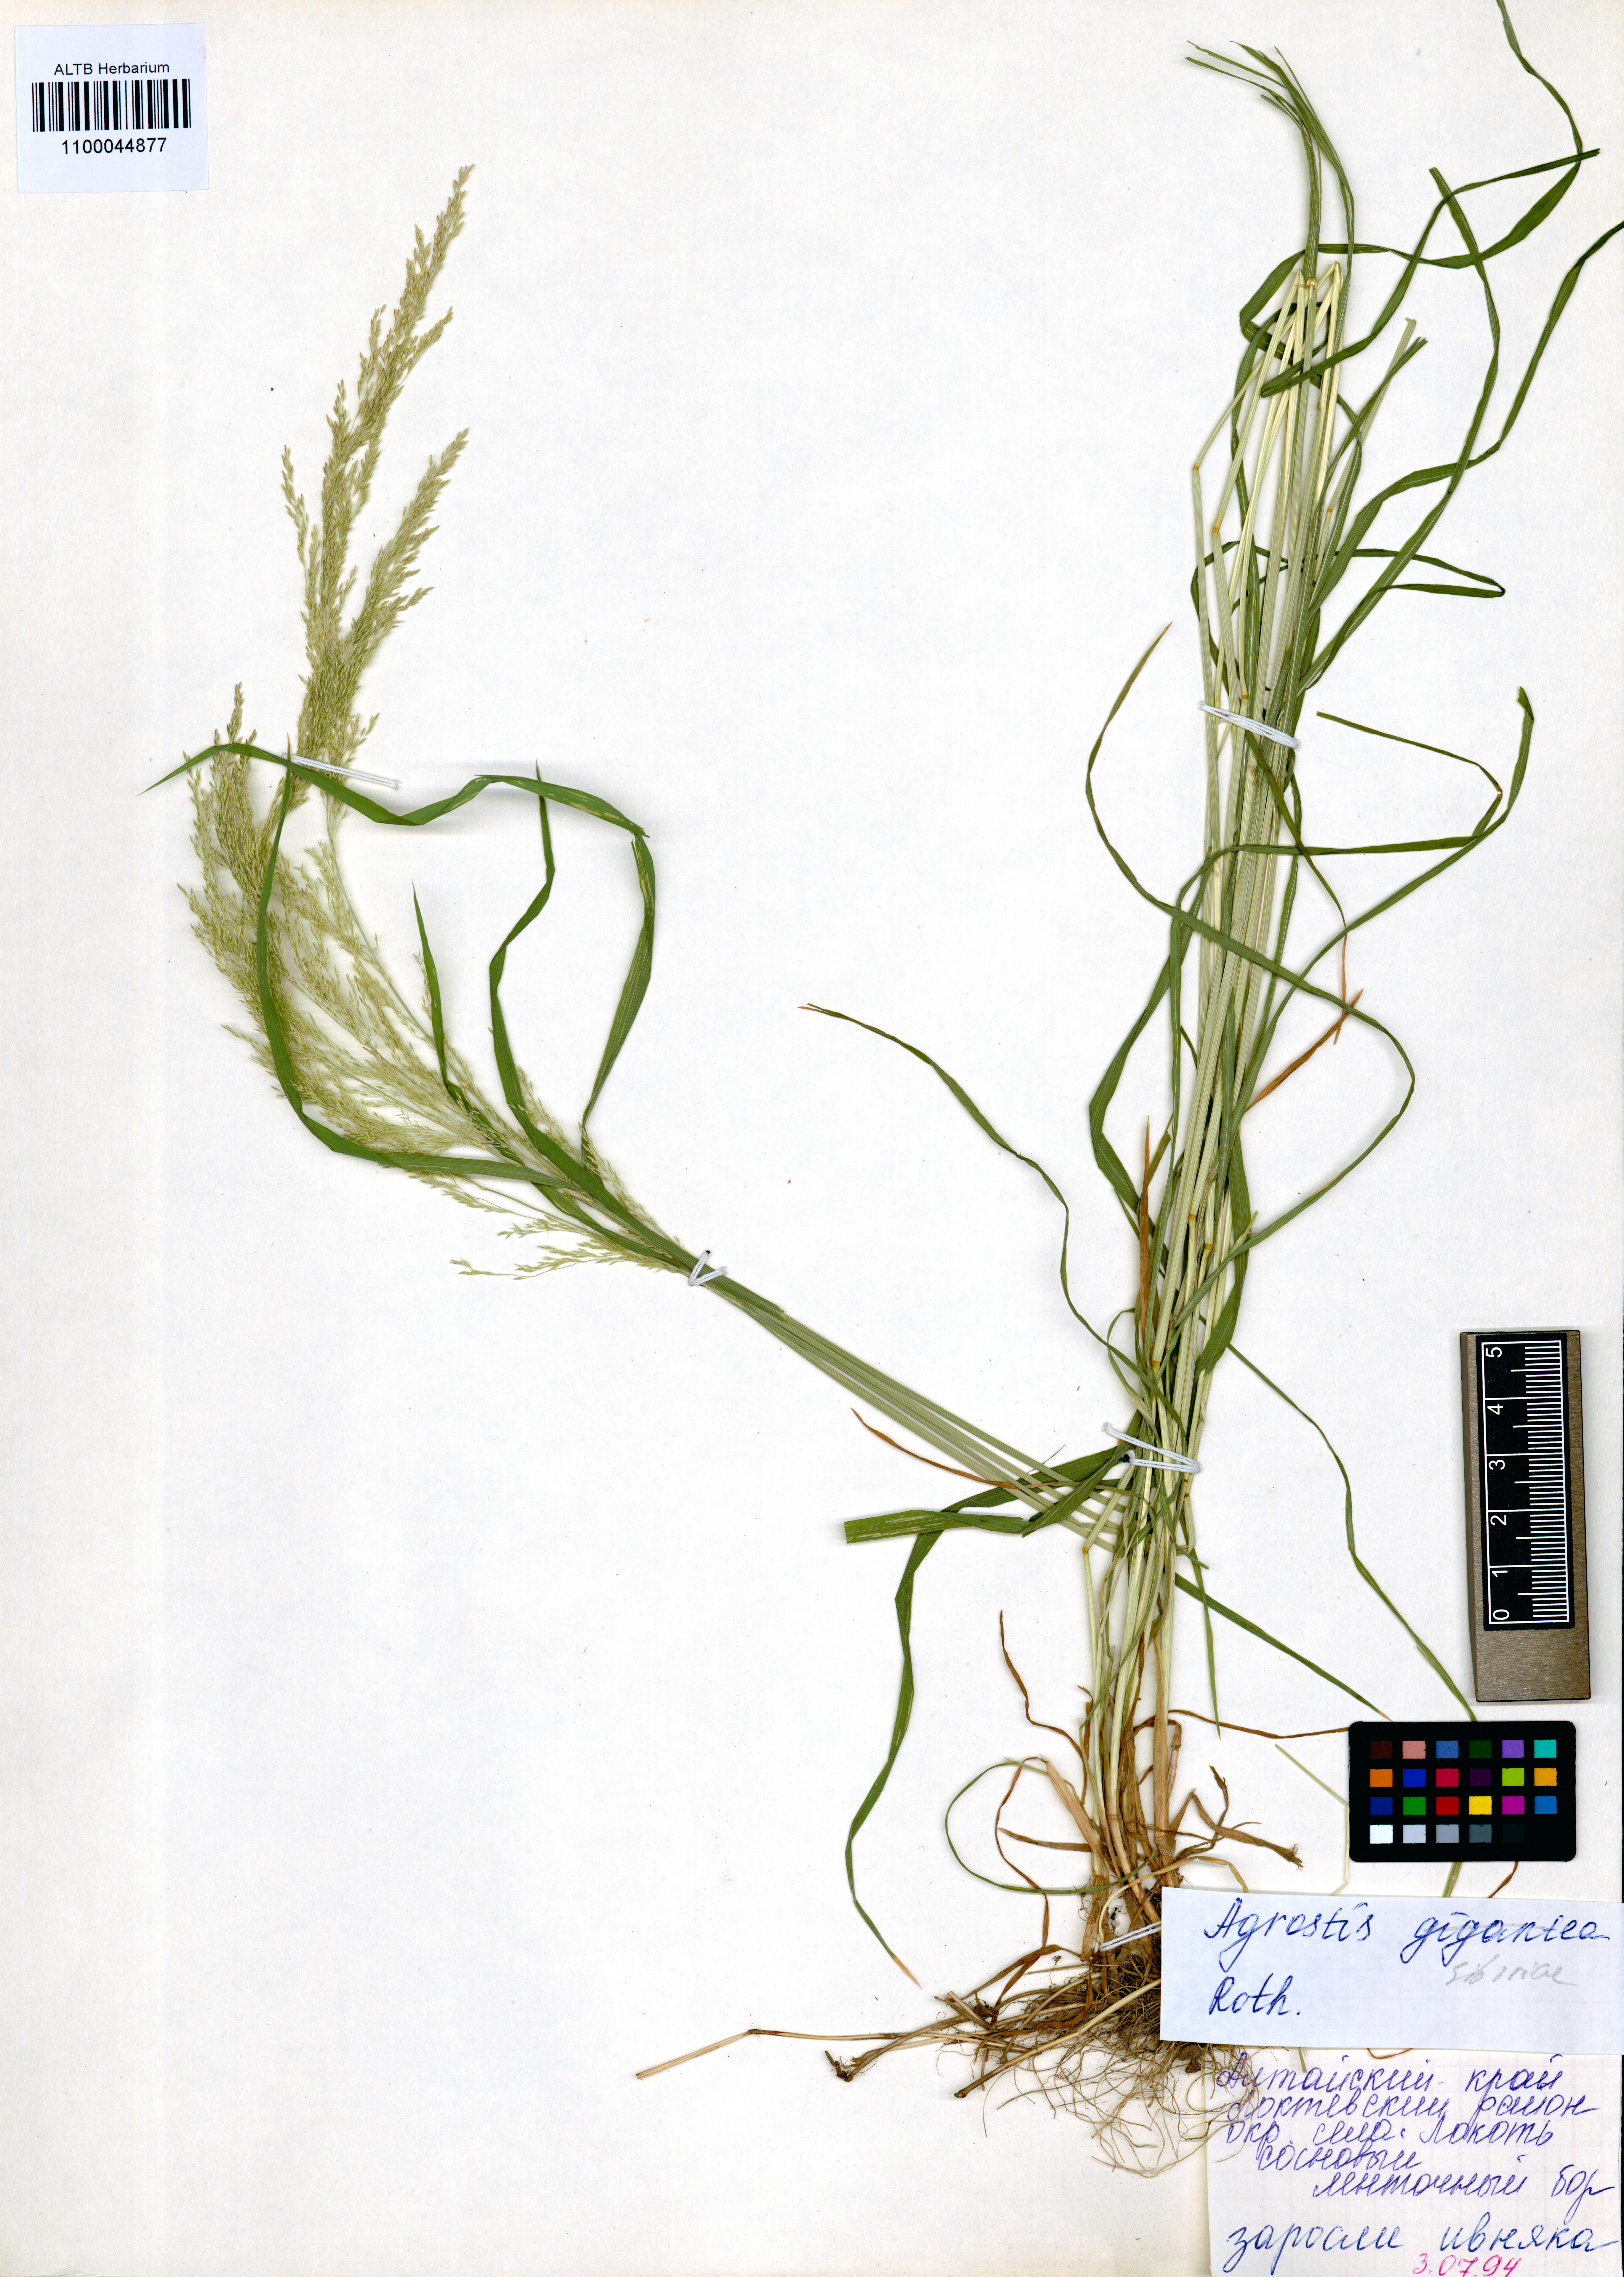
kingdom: Plantae
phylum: Tracheophyta
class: Liliopsida
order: Poales
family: Poaceae
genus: Agrostis
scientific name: Agrostis gigantea
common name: Black bent
